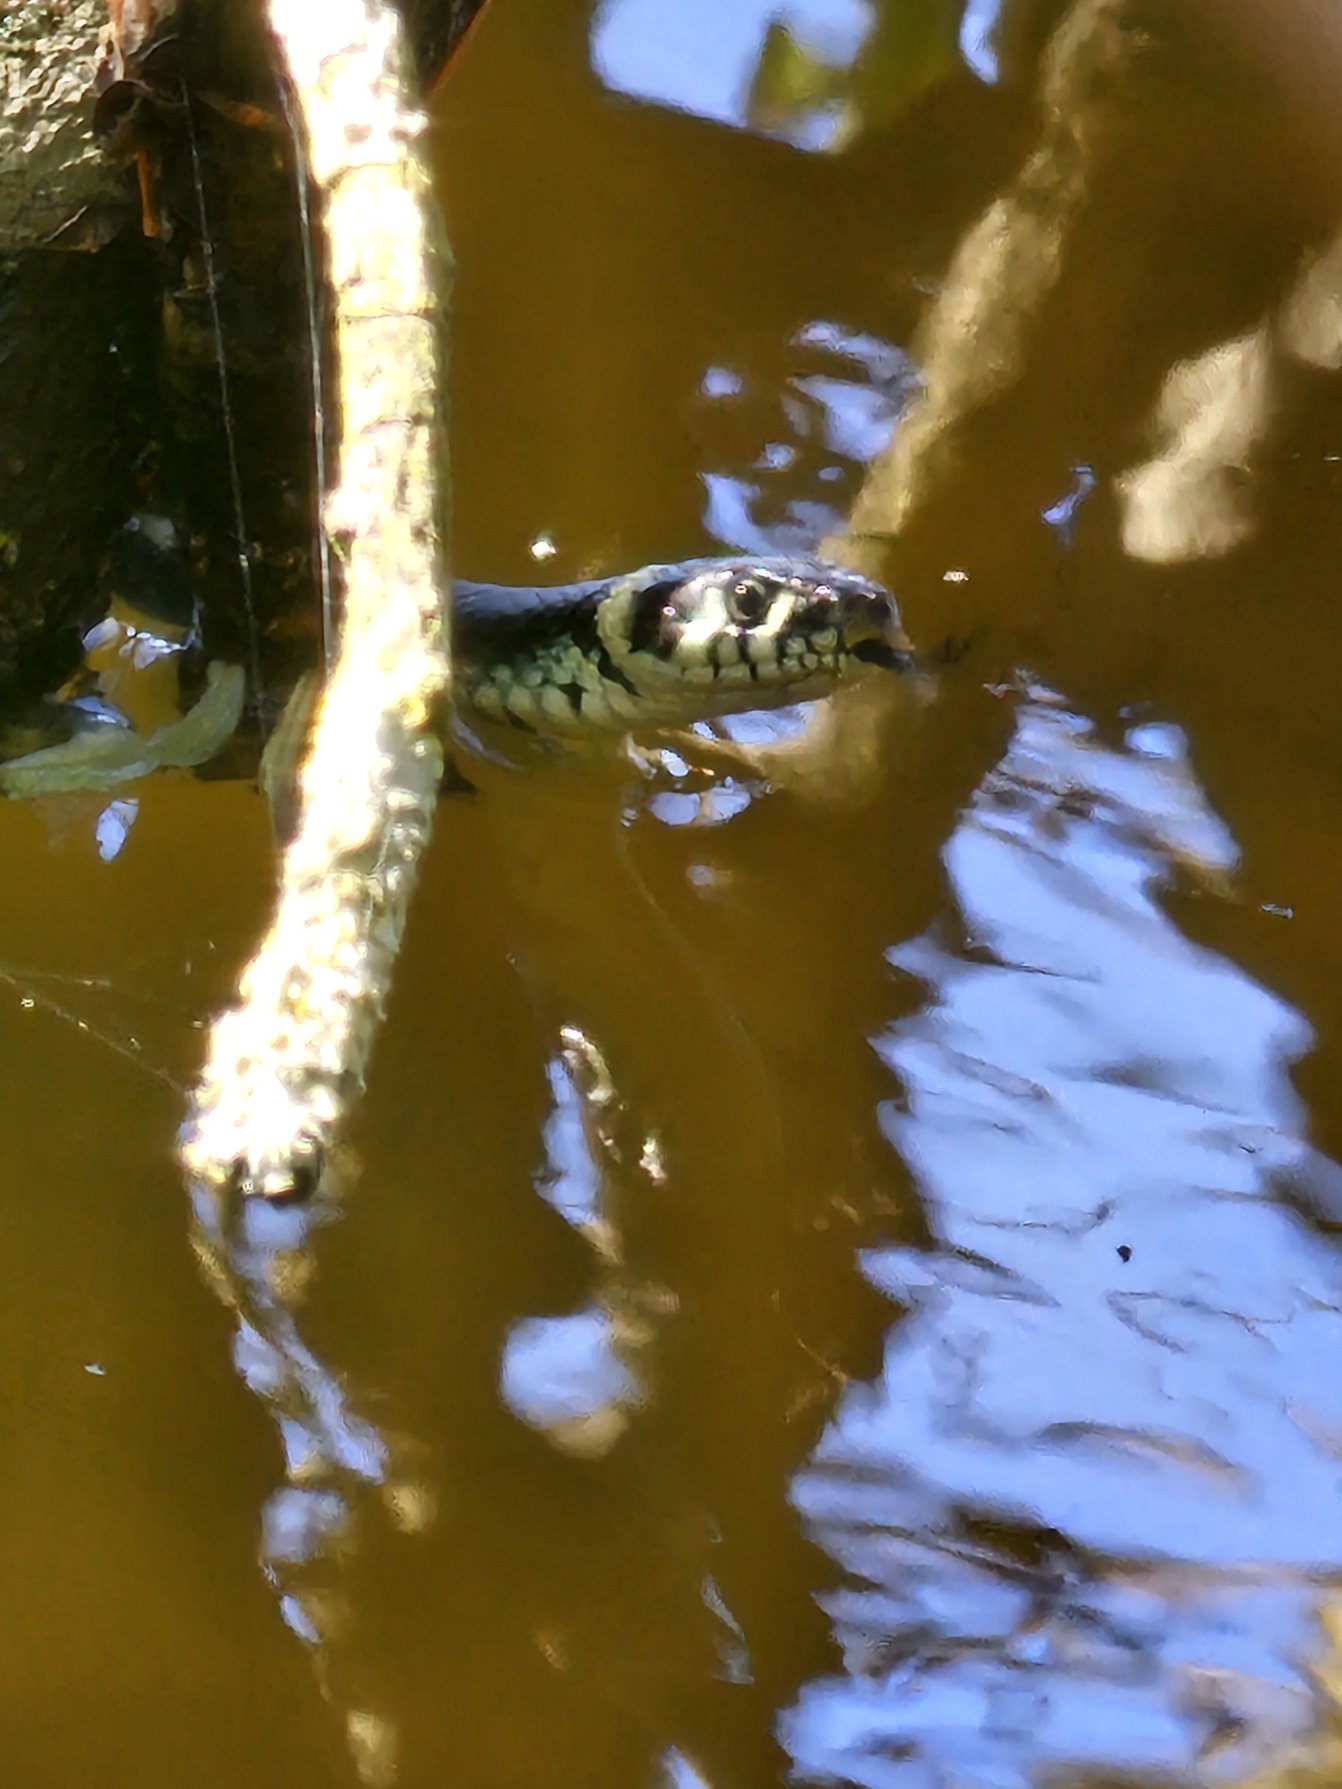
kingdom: Animalia
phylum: Chordata
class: Squamata
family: Colubridae
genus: Natrix
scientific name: Natrix natrix
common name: Snog
